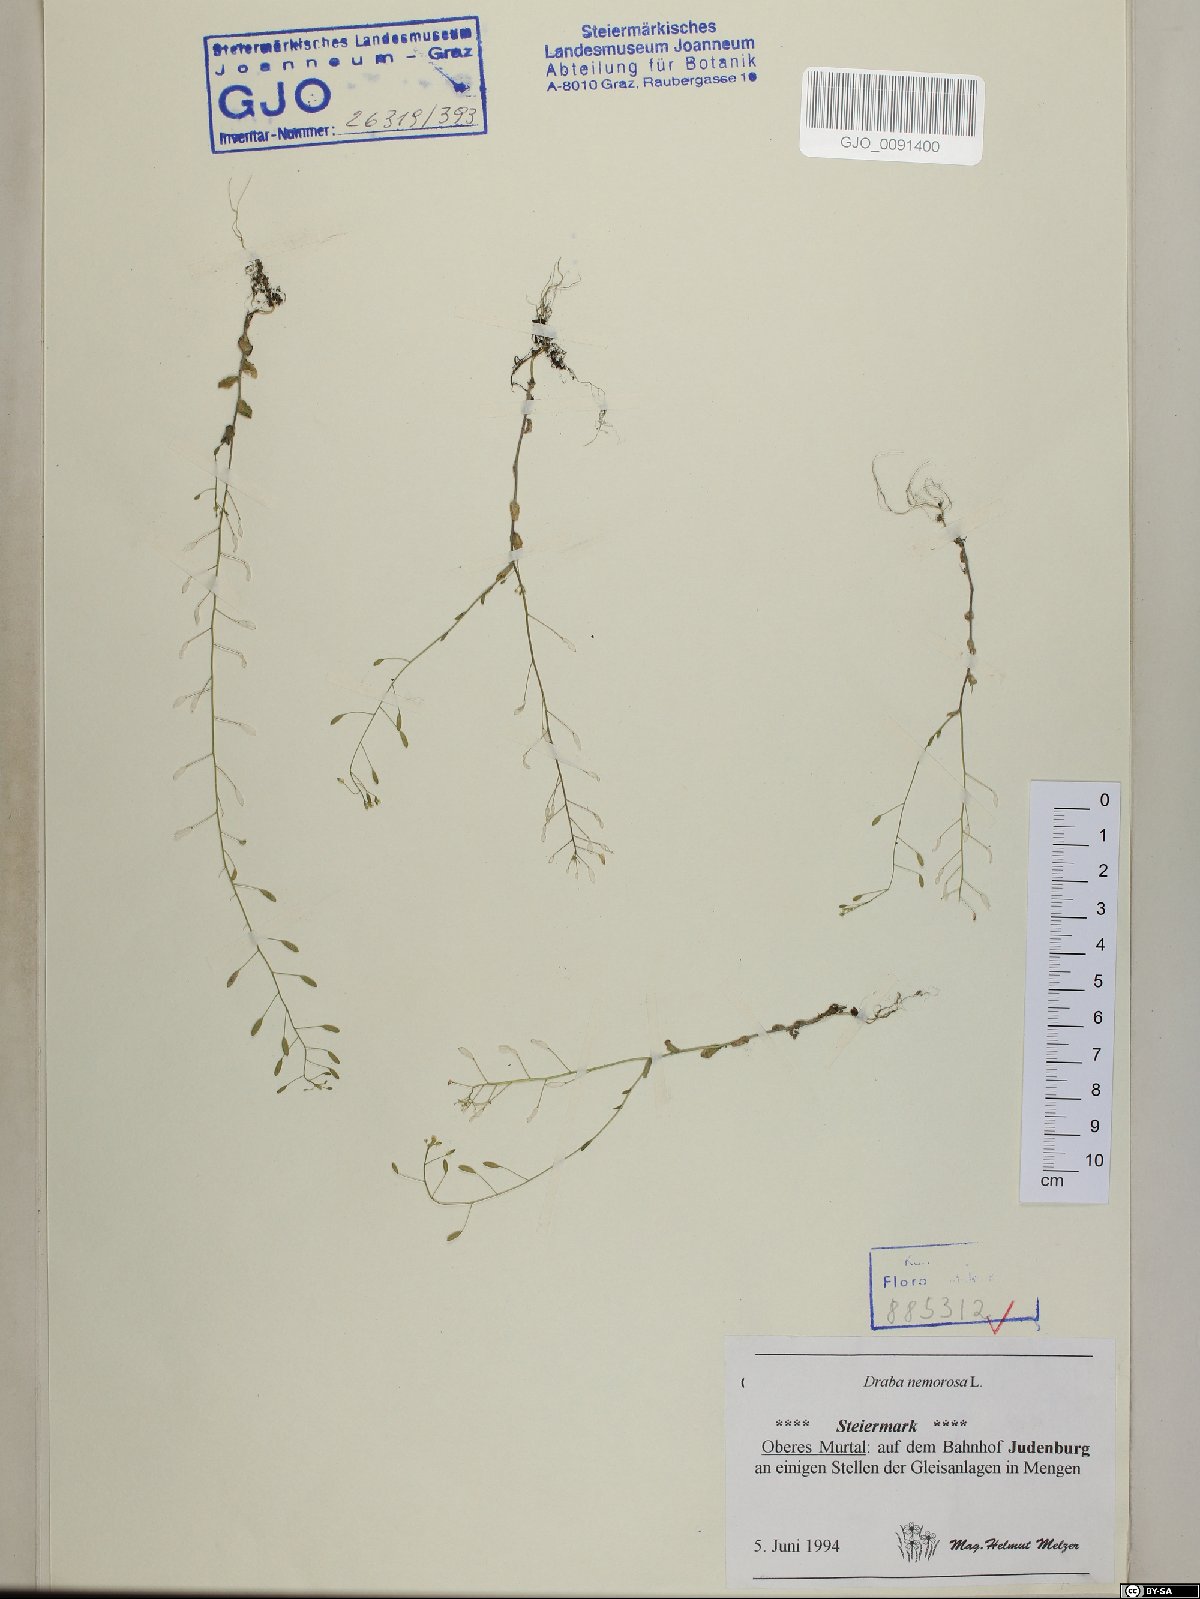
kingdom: Plantae
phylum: Tracheophyta
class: Magnoliopsida
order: Brassicales
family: Brassicaceae
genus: Draba
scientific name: Draba nemorosa
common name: Wood whitlow-grass
